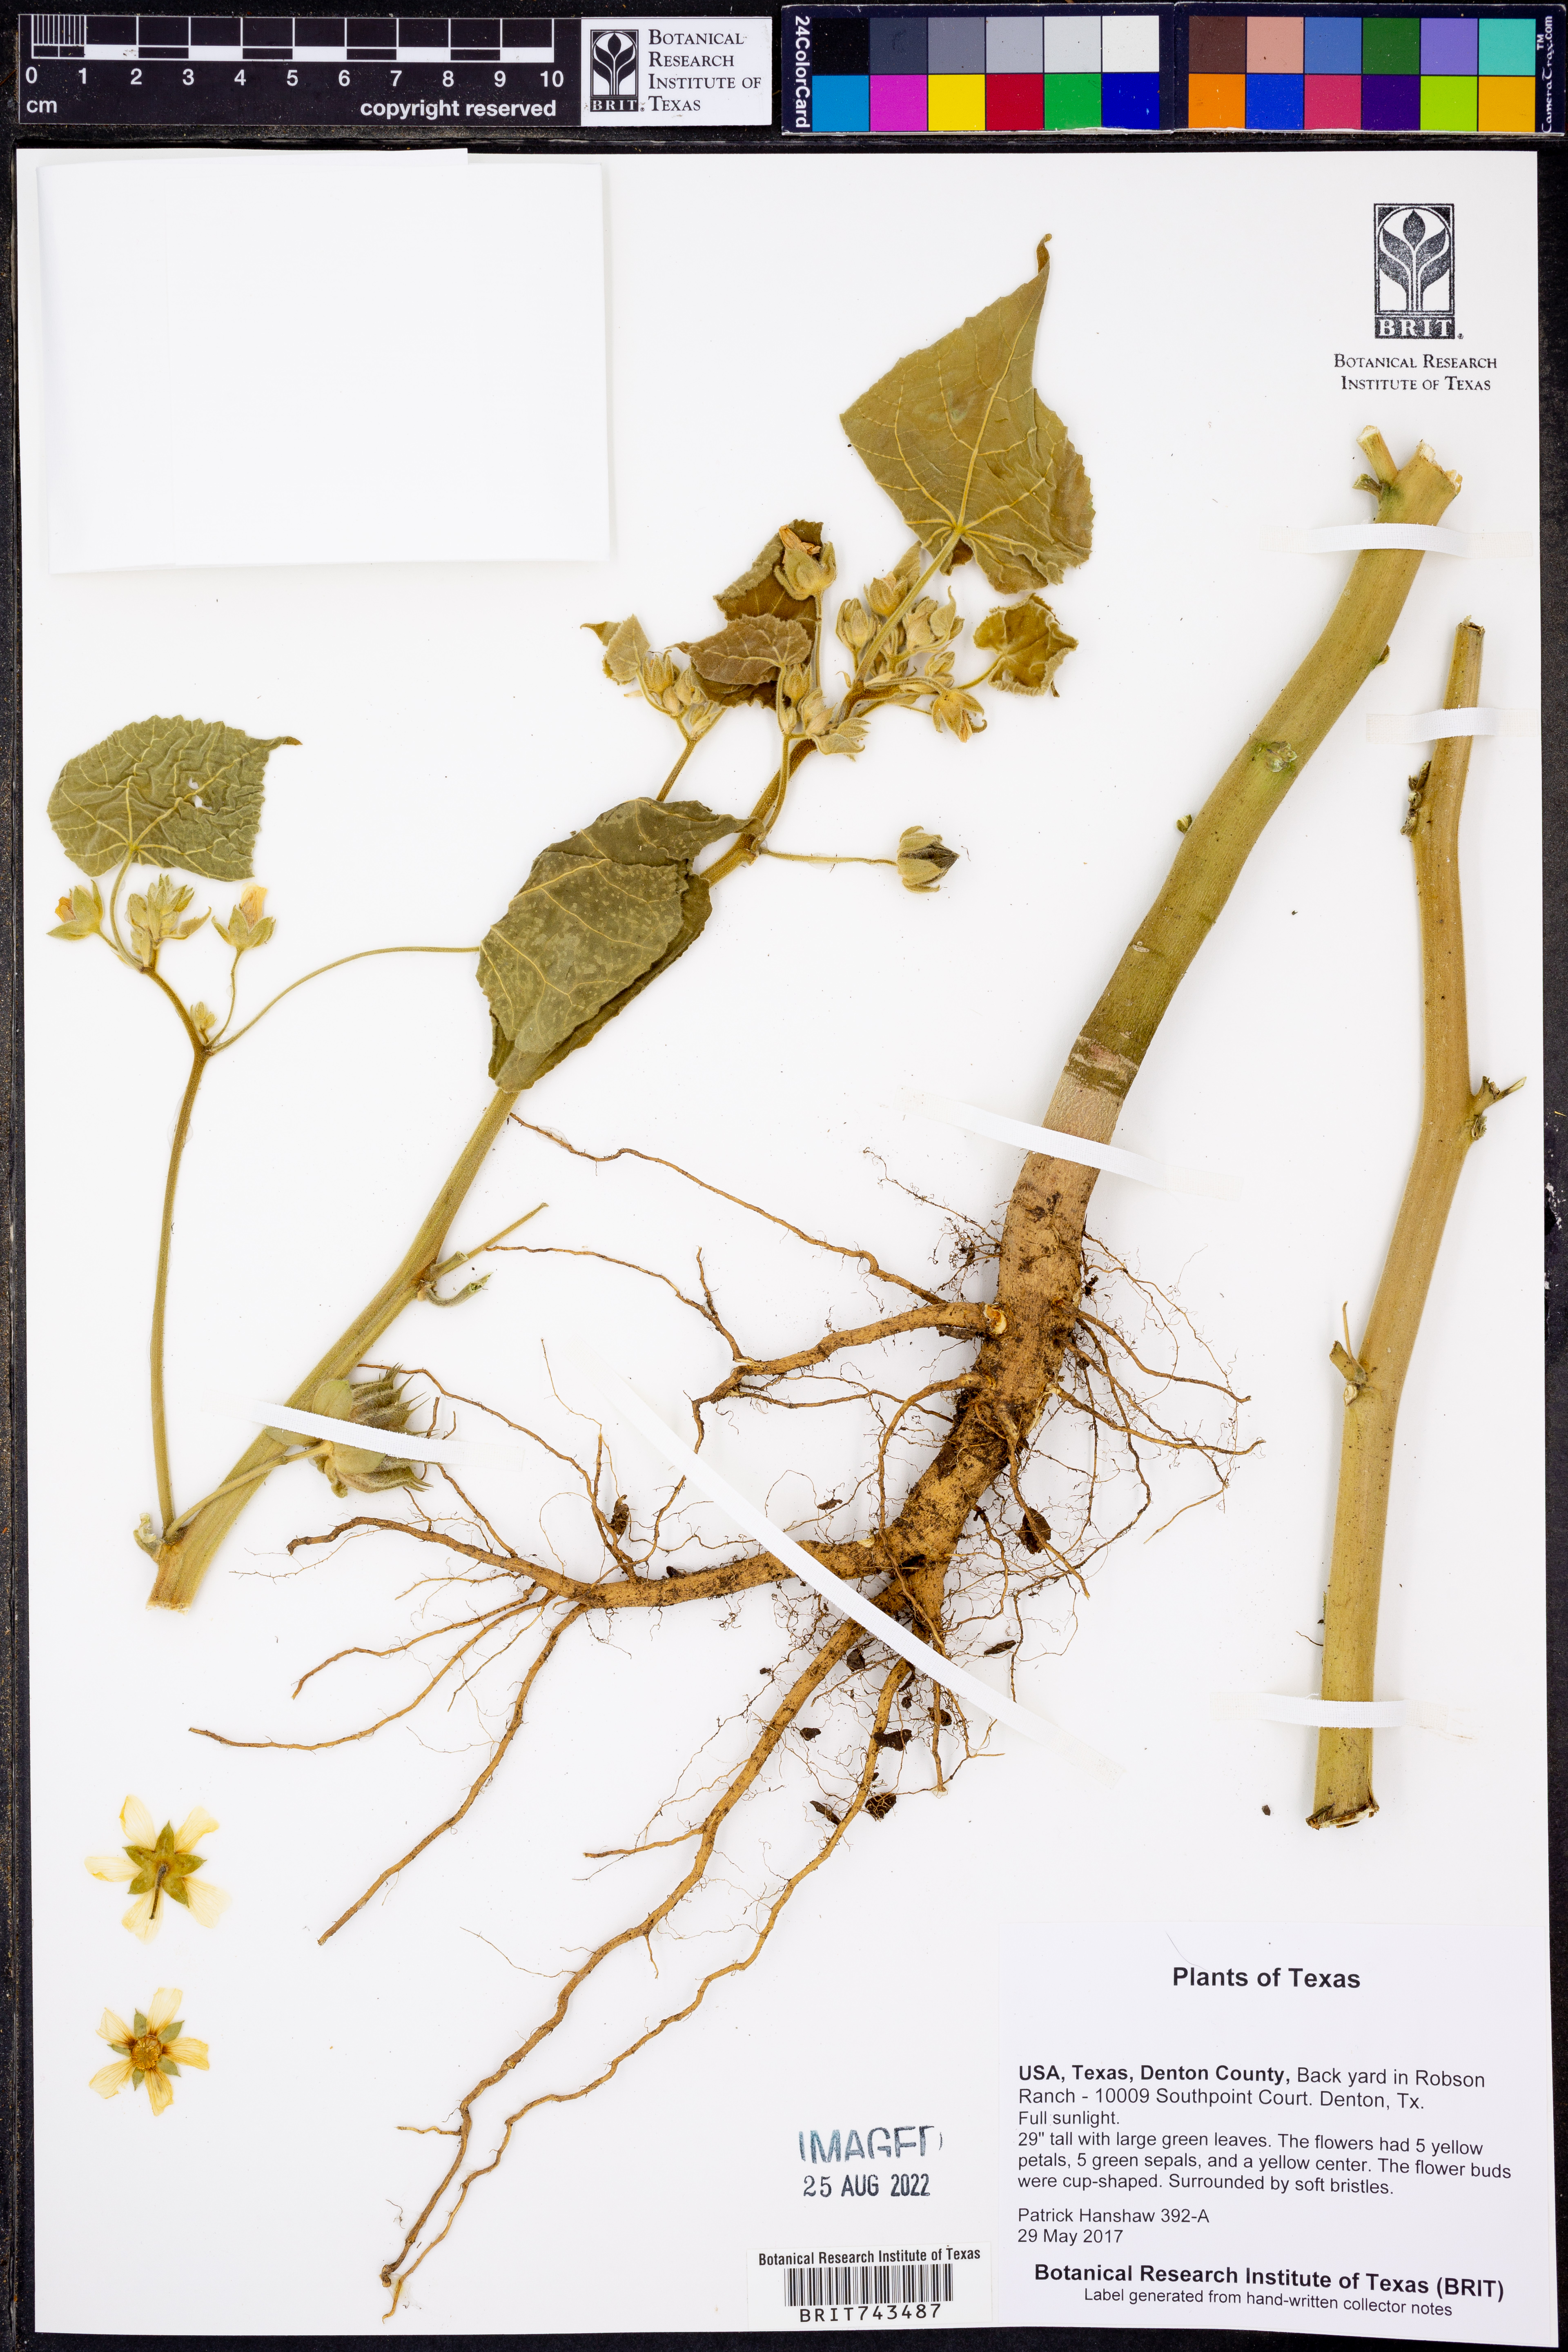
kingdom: Plantae
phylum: Tracheophyta
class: Magnoliopsida
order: Malvales
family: Malvaceae
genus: Abutilon
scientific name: Abutilon theophrasti
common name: Velvetleaf
